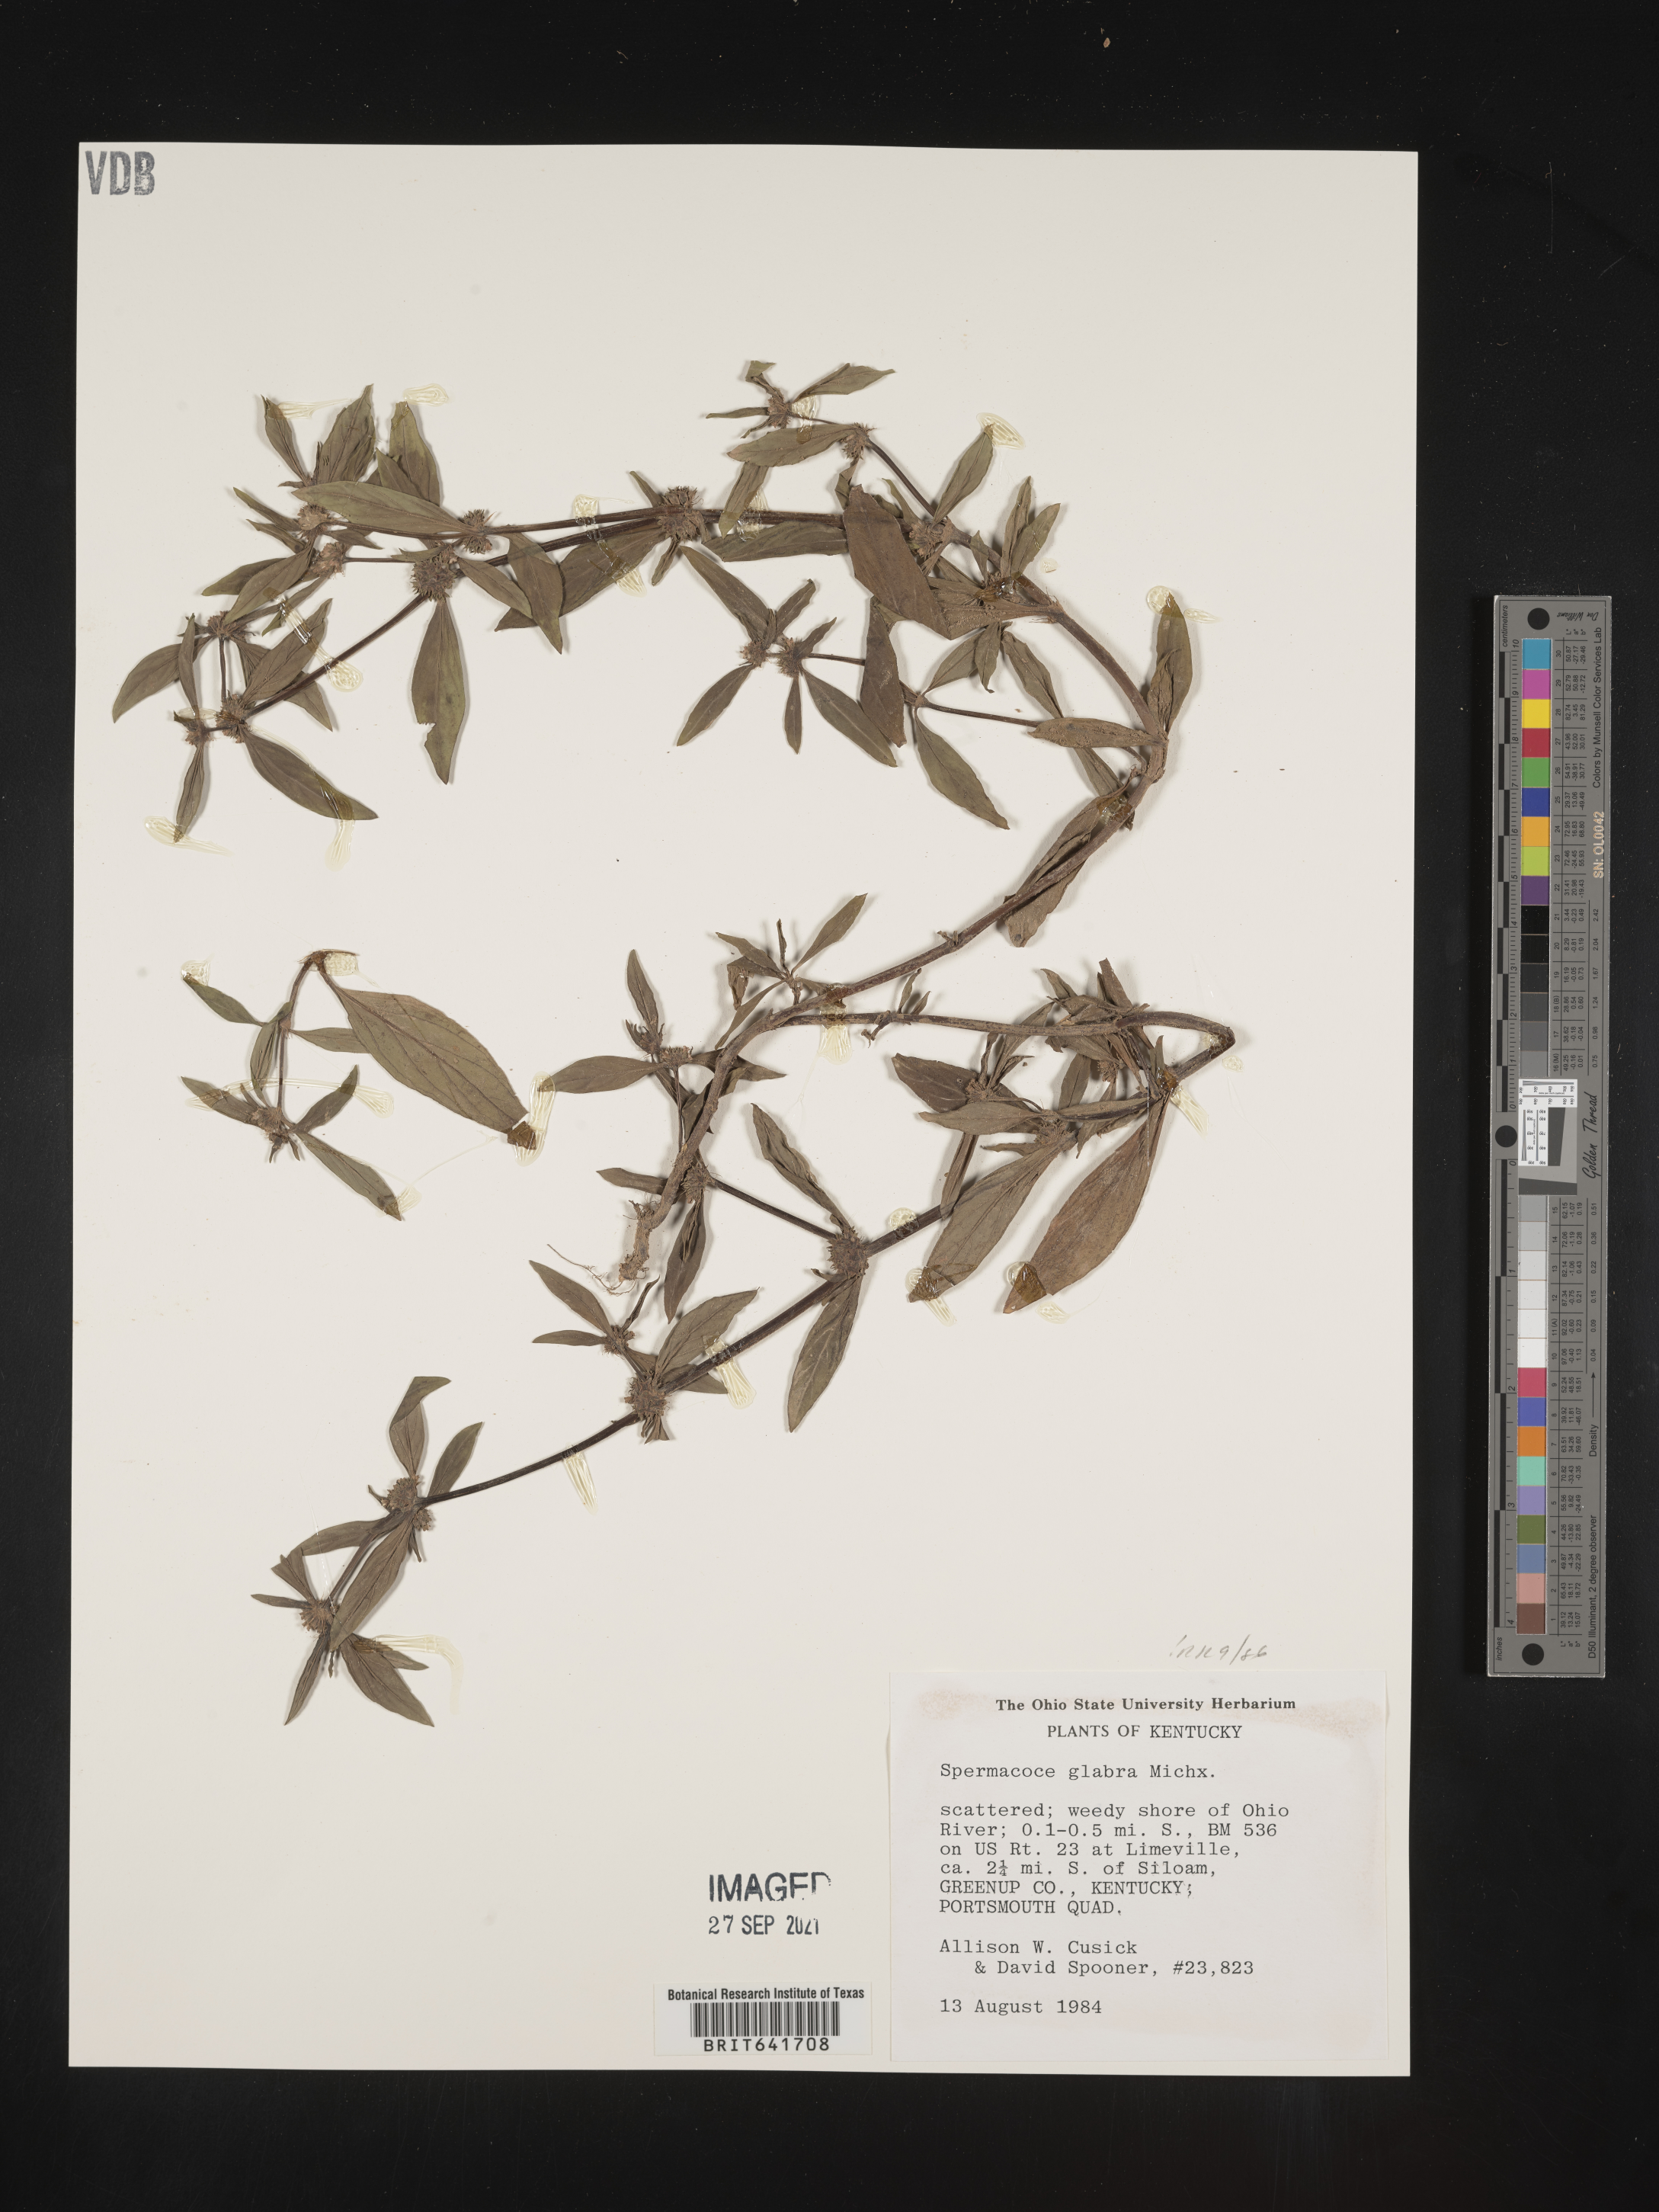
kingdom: Plantae
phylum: Tracheophyta
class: Magnoliopsida
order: Gentianales
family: Rubiaceae
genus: Spermacoce
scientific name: Spermacoce glabra
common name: Smooth buttonweed
